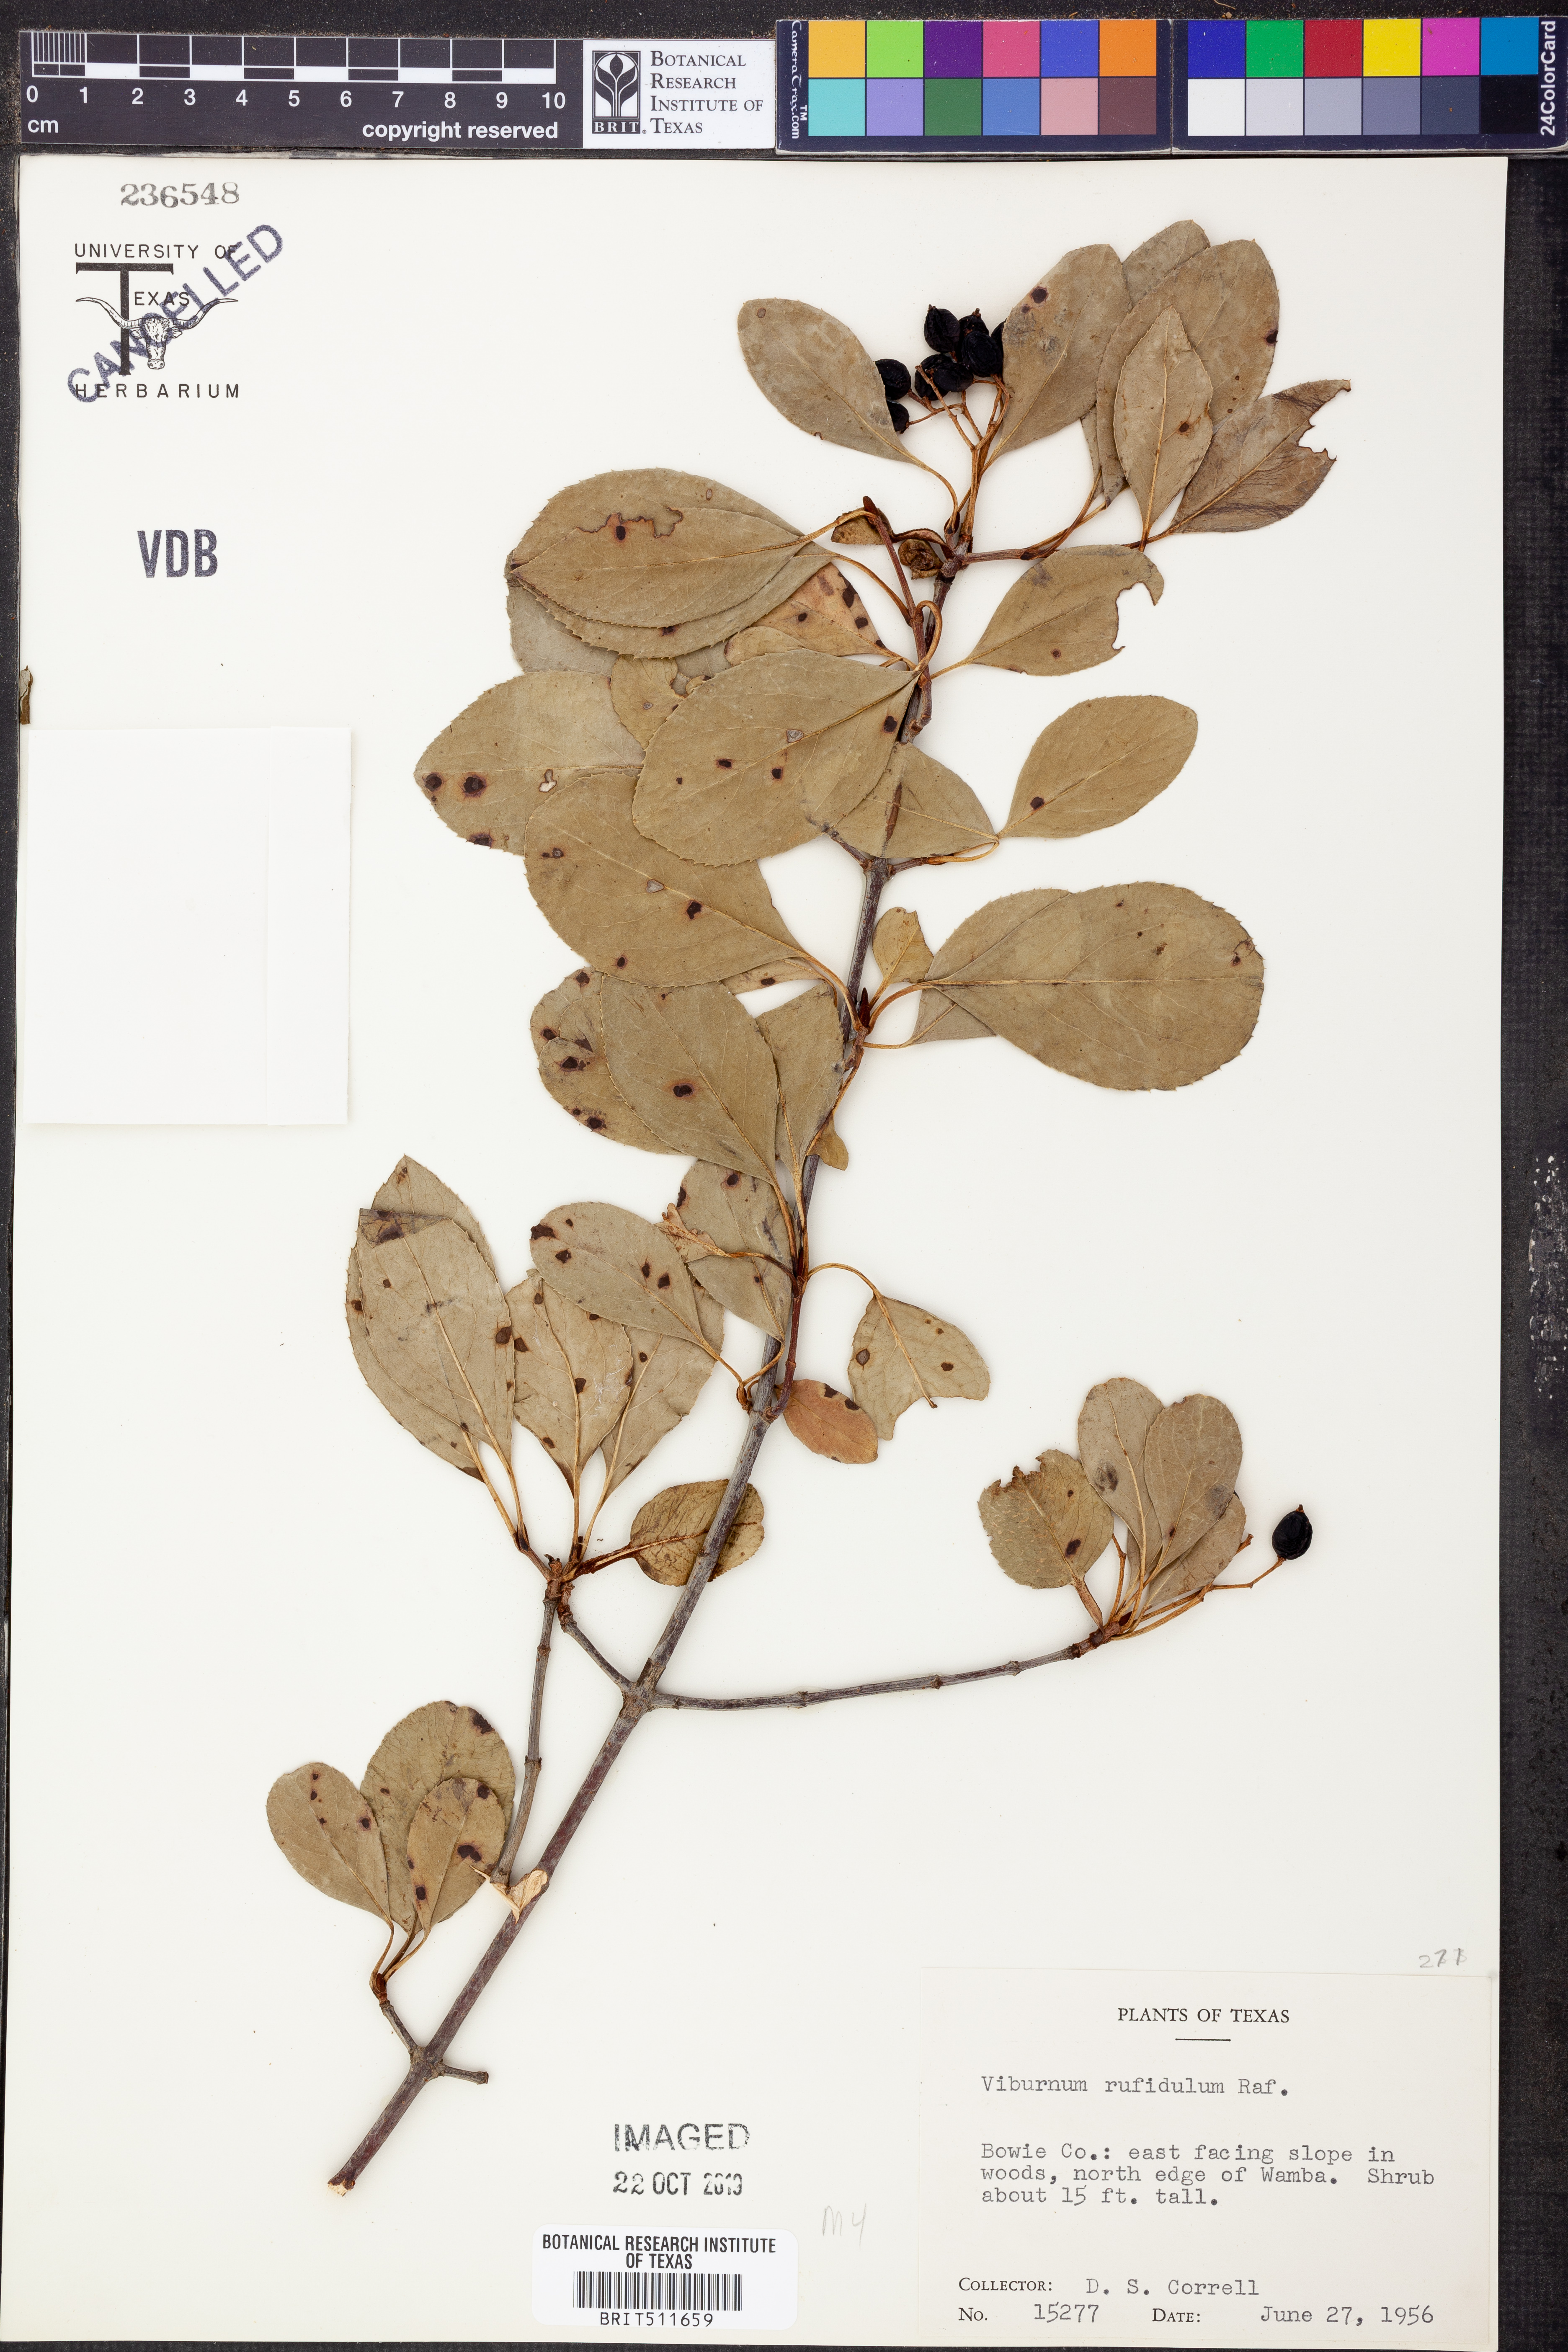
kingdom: Plantae
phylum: Tracheophyta
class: Magnoliopsida
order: Dipsacales
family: Viburnaceae
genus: Viburnum
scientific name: Viburnum rufidulum
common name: Blue haw
